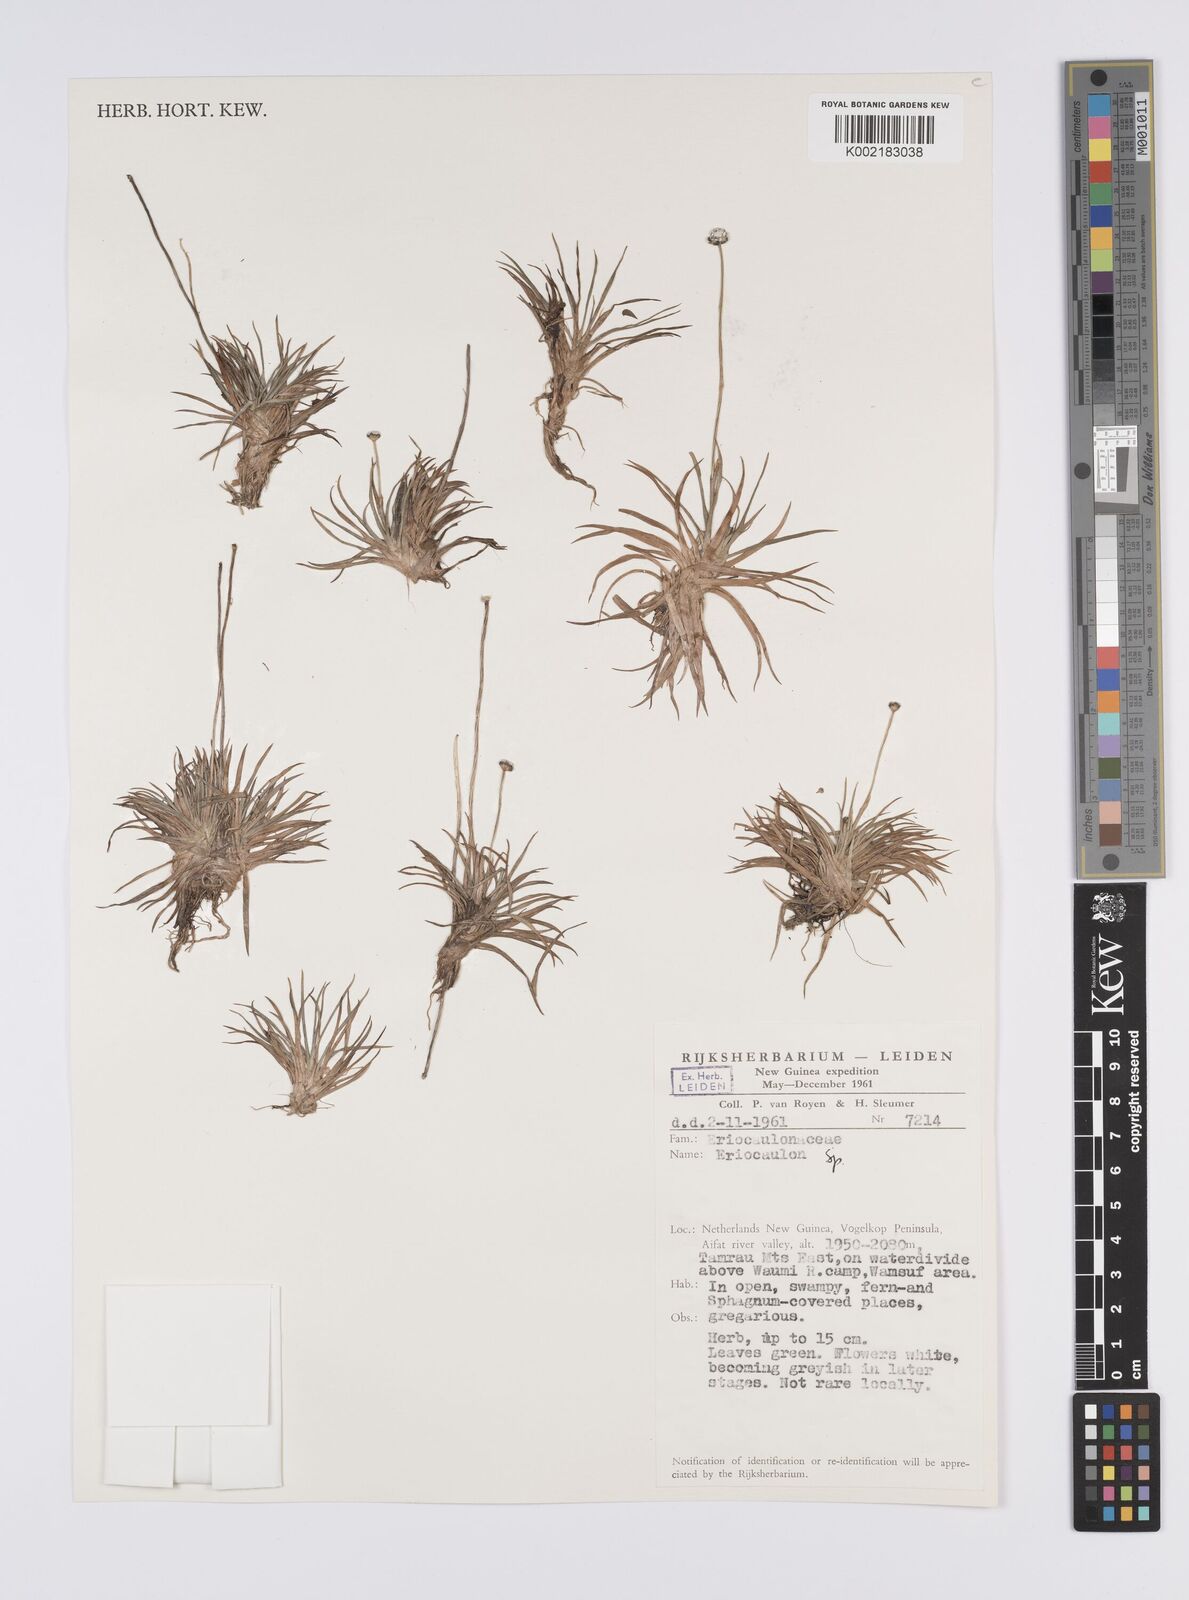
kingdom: Plantae
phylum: Tracheophyta
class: Liliopsida
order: Poales
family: Eriocaulaceae
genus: Eriocaulon
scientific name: Eriocaulon
